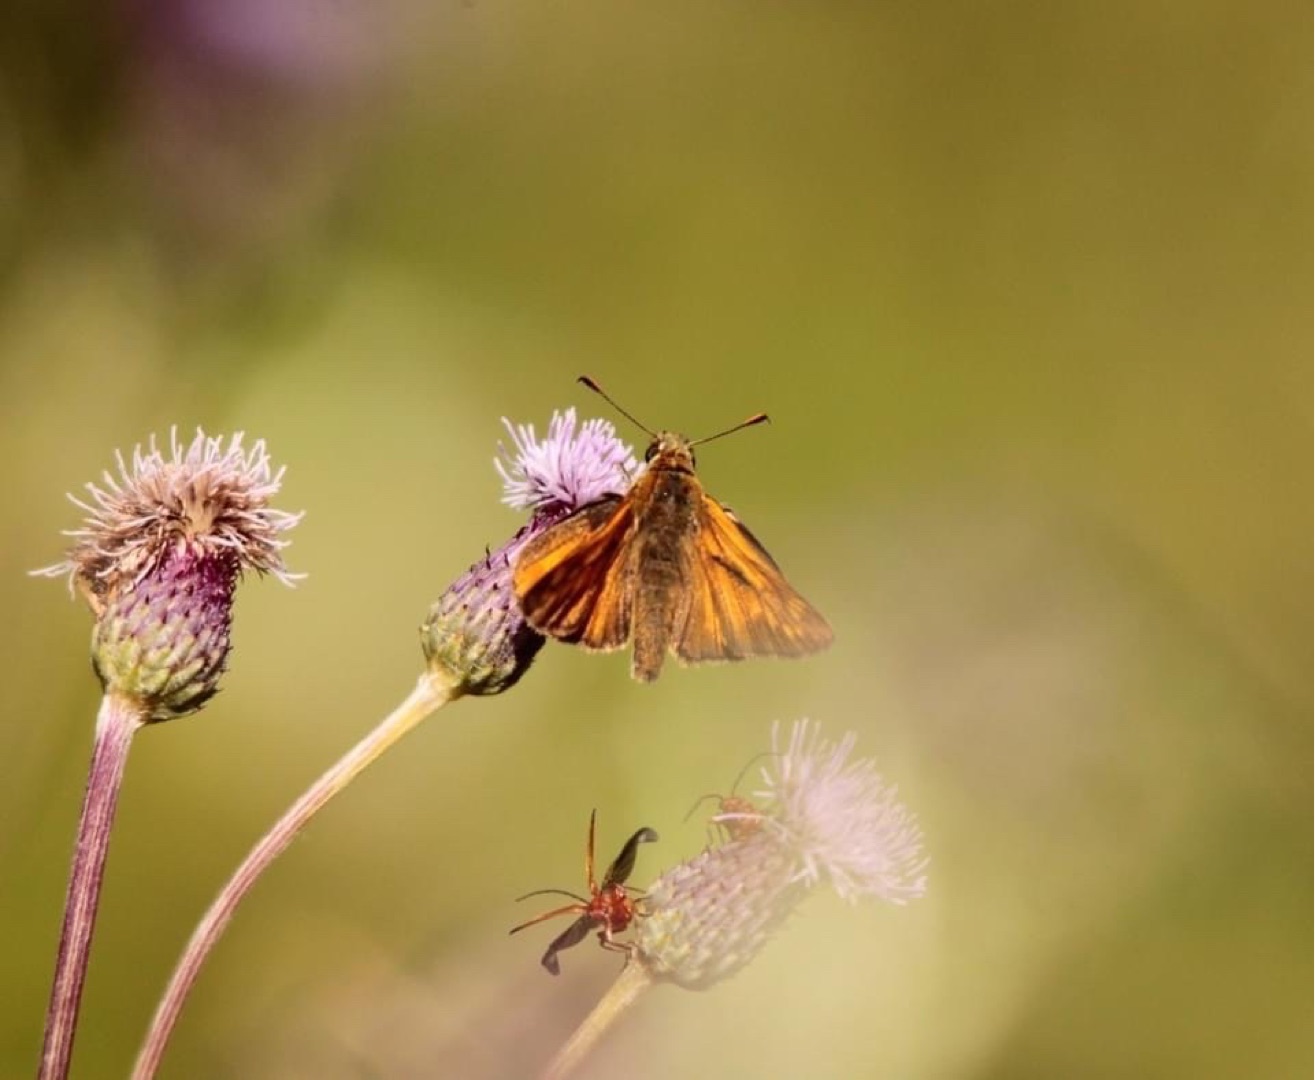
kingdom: Animalia
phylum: Arthropoda
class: Insecta
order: Lepidoptera
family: Hesperiidae
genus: Ochlodes
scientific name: Ochlodes venata
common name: Stor bredpande
